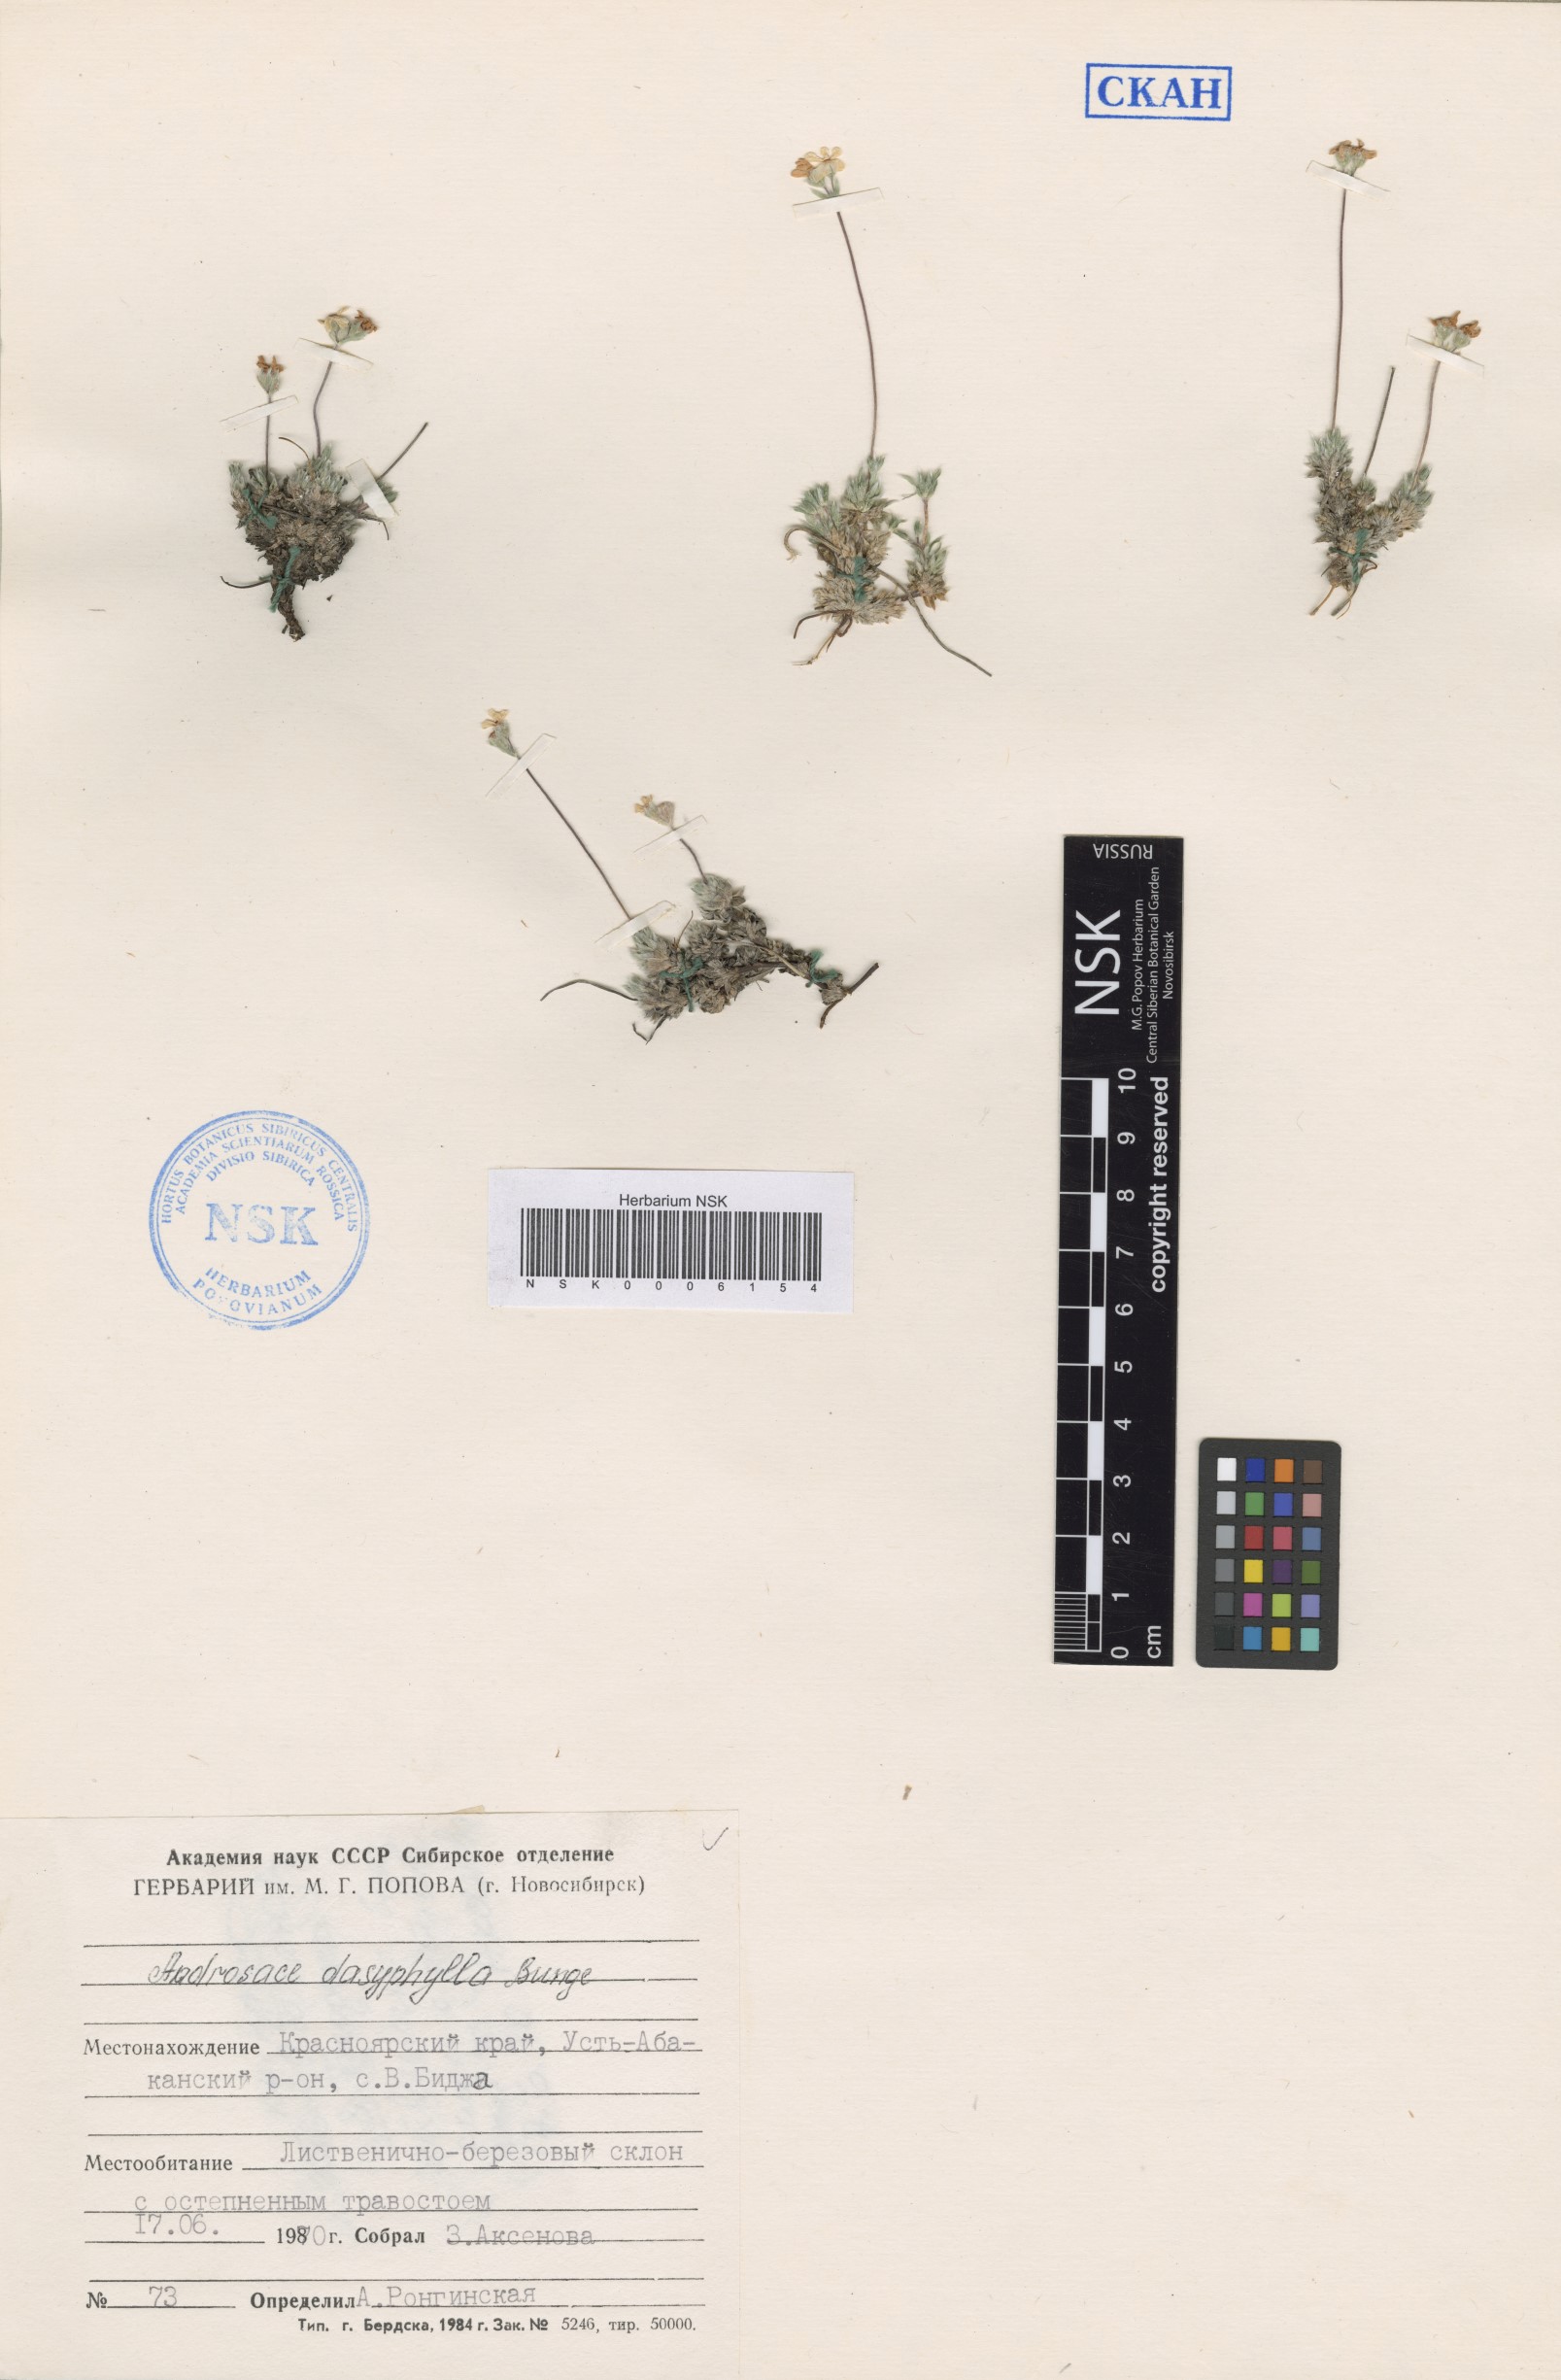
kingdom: Plantae
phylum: Tracheophyta
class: Magnoliopsida
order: Ericales
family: Primulaceae
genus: Androsace
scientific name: Androsace dasyphylla
